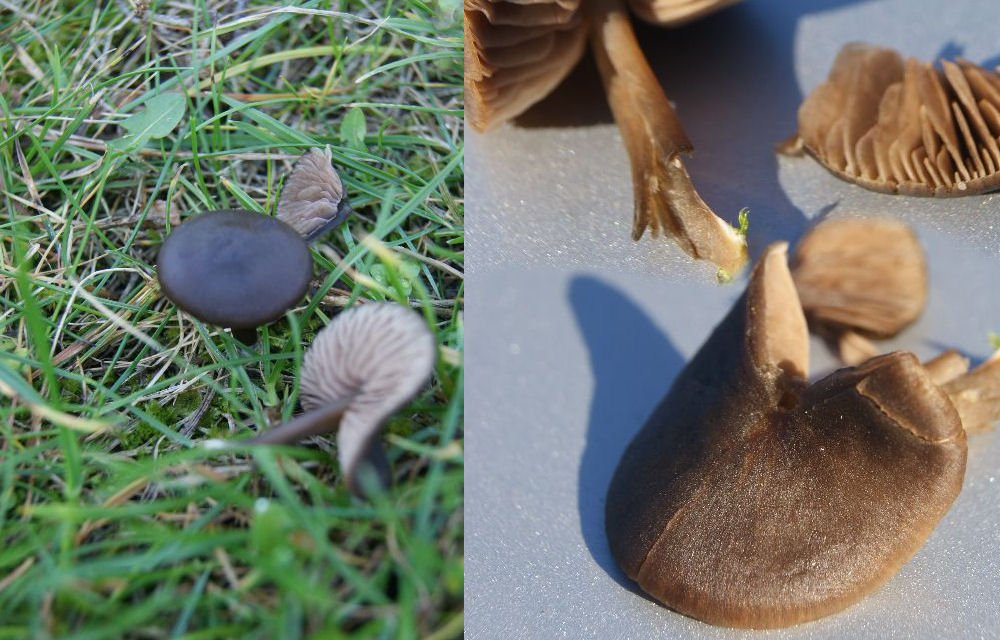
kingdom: Fungi
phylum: Basidiomycota
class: Agaricomycetes
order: Agaricales
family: Entolomataceae
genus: Entoloma
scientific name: Entoloma sericeum
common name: silkeglinsende rødblad
